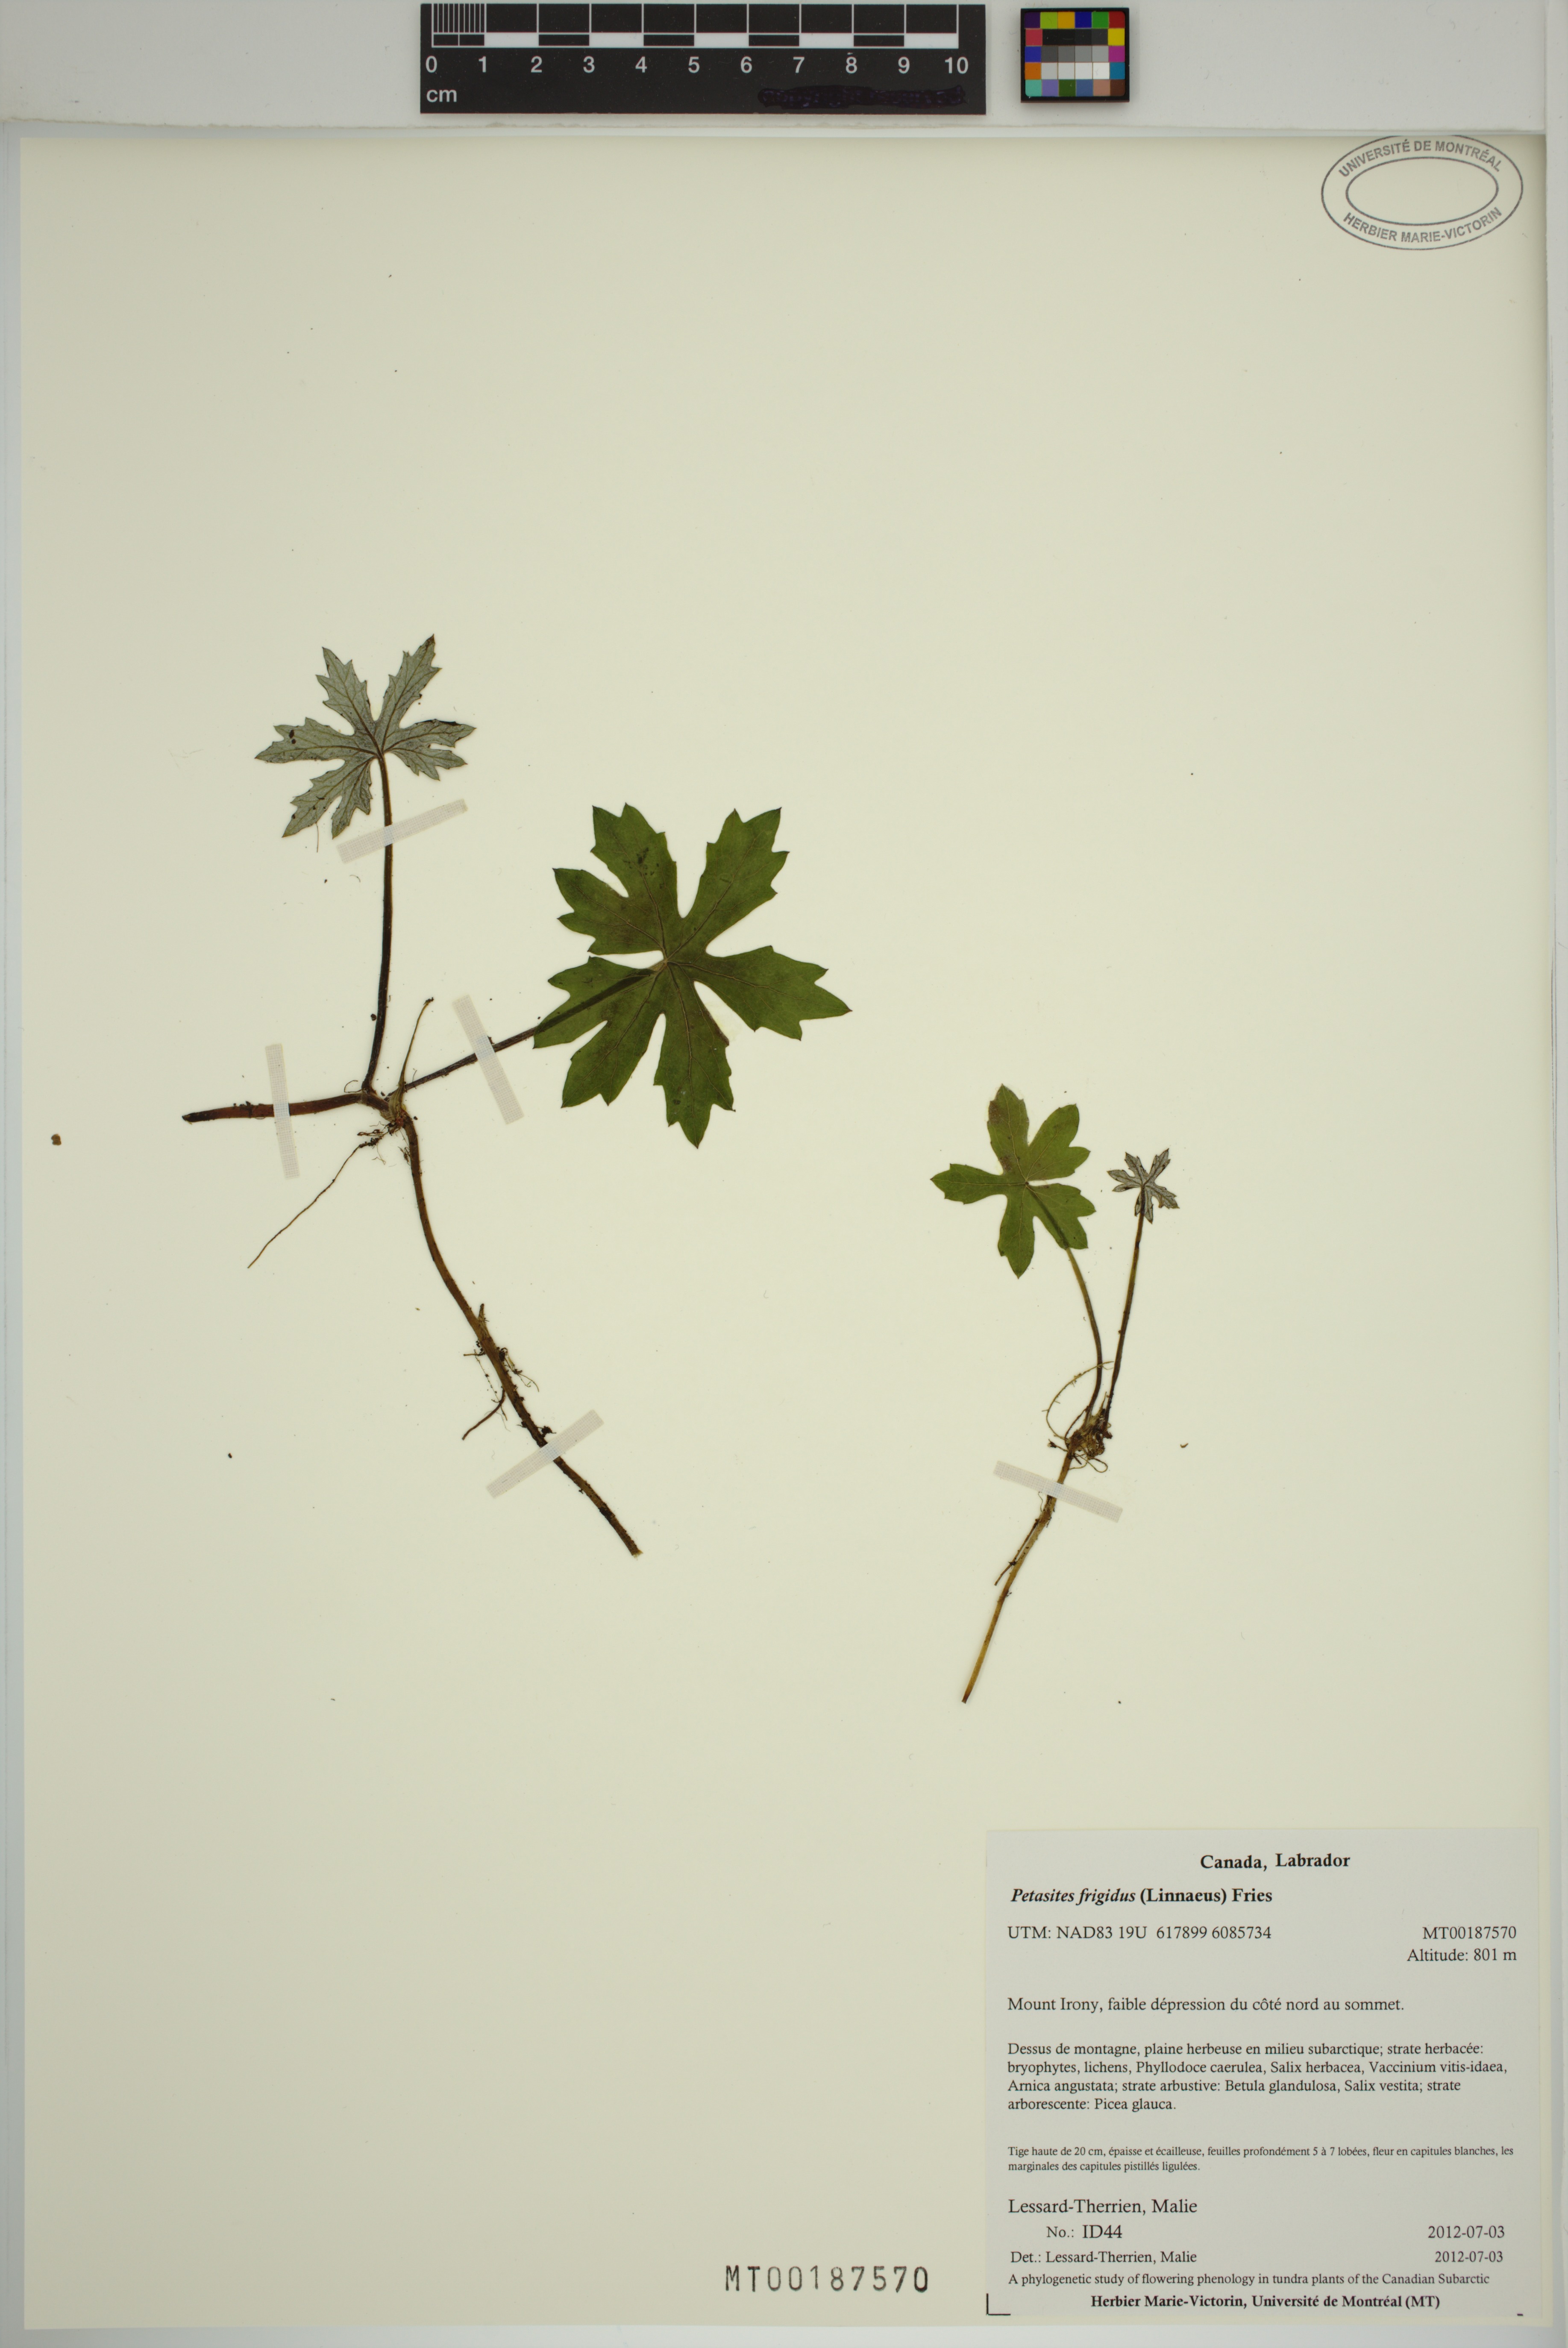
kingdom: Plantae
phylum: Tracheophyta
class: Magnoliopsida
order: Asterales
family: Asteraceae
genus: Petasites
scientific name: Petasites frigidus
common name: Arctic butterbur
